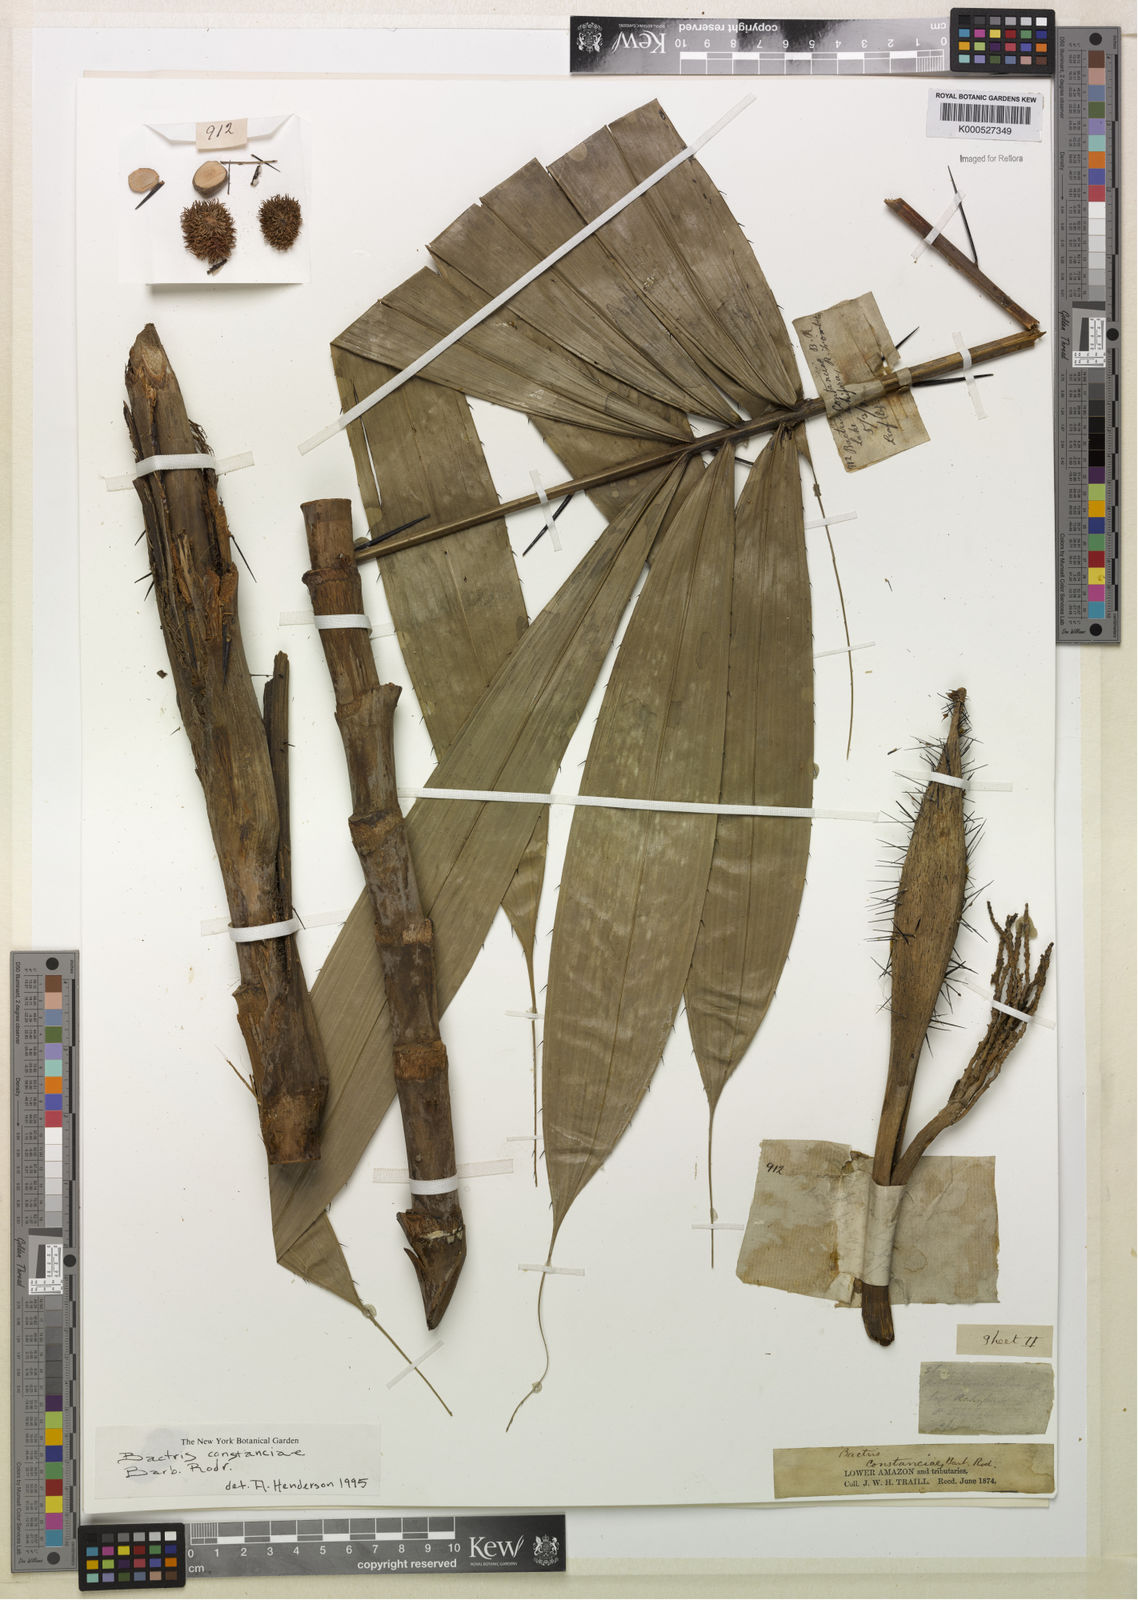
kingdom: Plantae
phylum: Tracheophyta
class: Liliopsida
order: Arecales
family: Arecaceae
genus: Bactris
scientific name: Bactris constanciae
